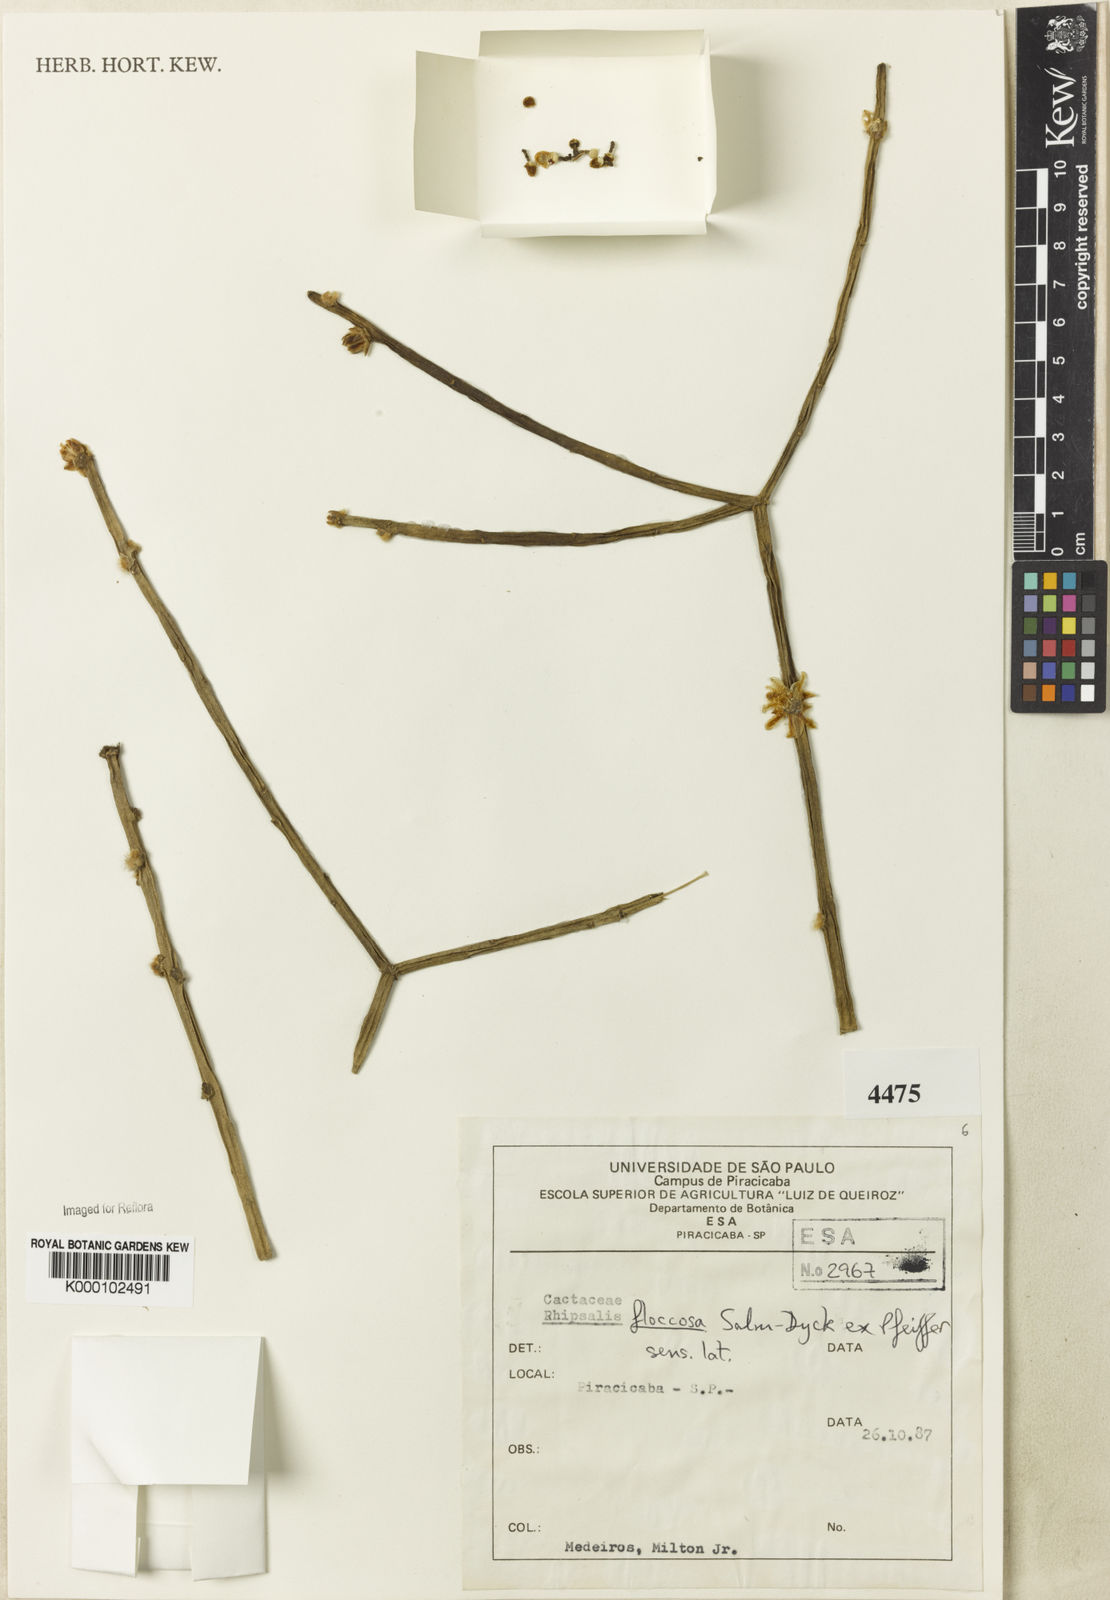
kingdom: Plantae
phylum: Tracheophyta
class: Magnoliopsida
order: Caryophyllales
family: Cactaceae
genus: Rhipsalis
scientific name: Rhipsalis floccosa
